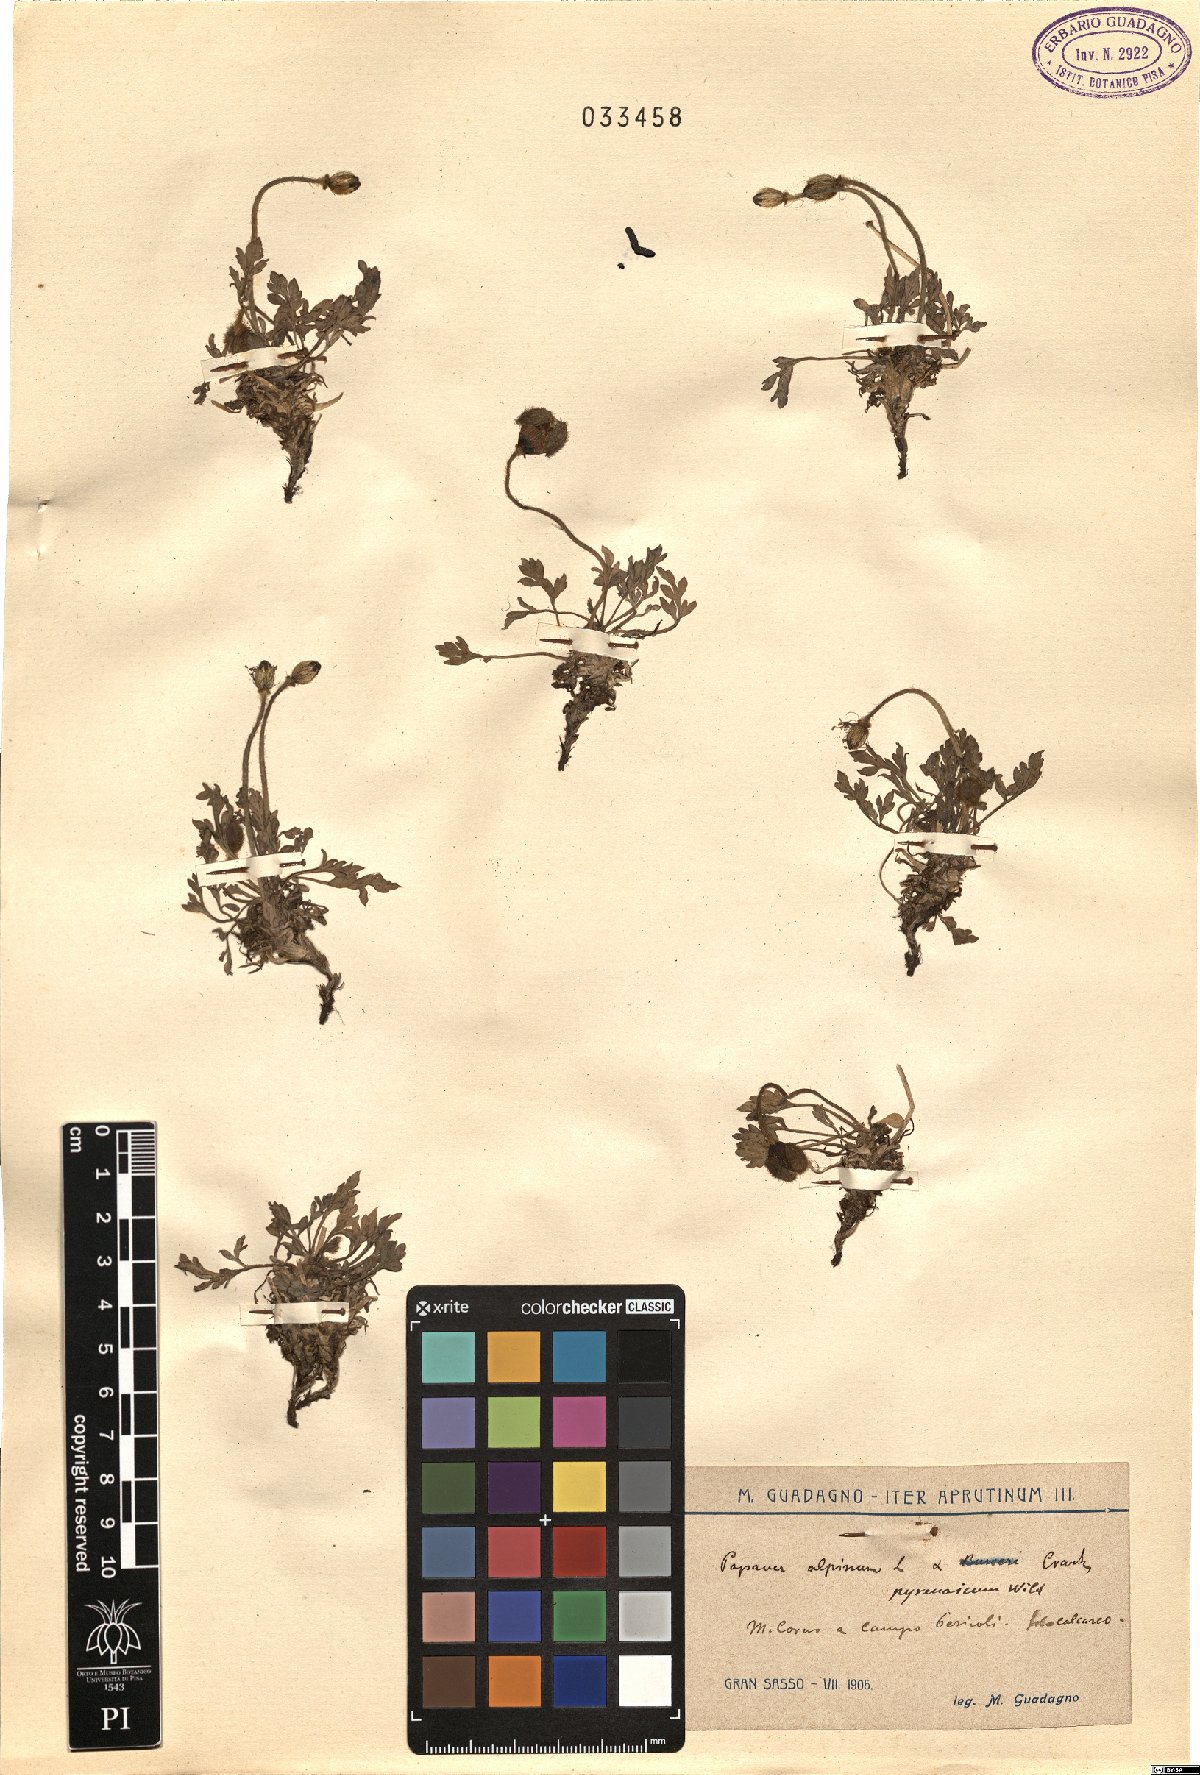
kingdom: Plantae
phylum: Tracheophyta
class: Magnoliopsida
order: Ranunculales
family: Papaveraceae
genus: Papaver
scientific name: Papaver alpinum
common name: Austrian poppy
